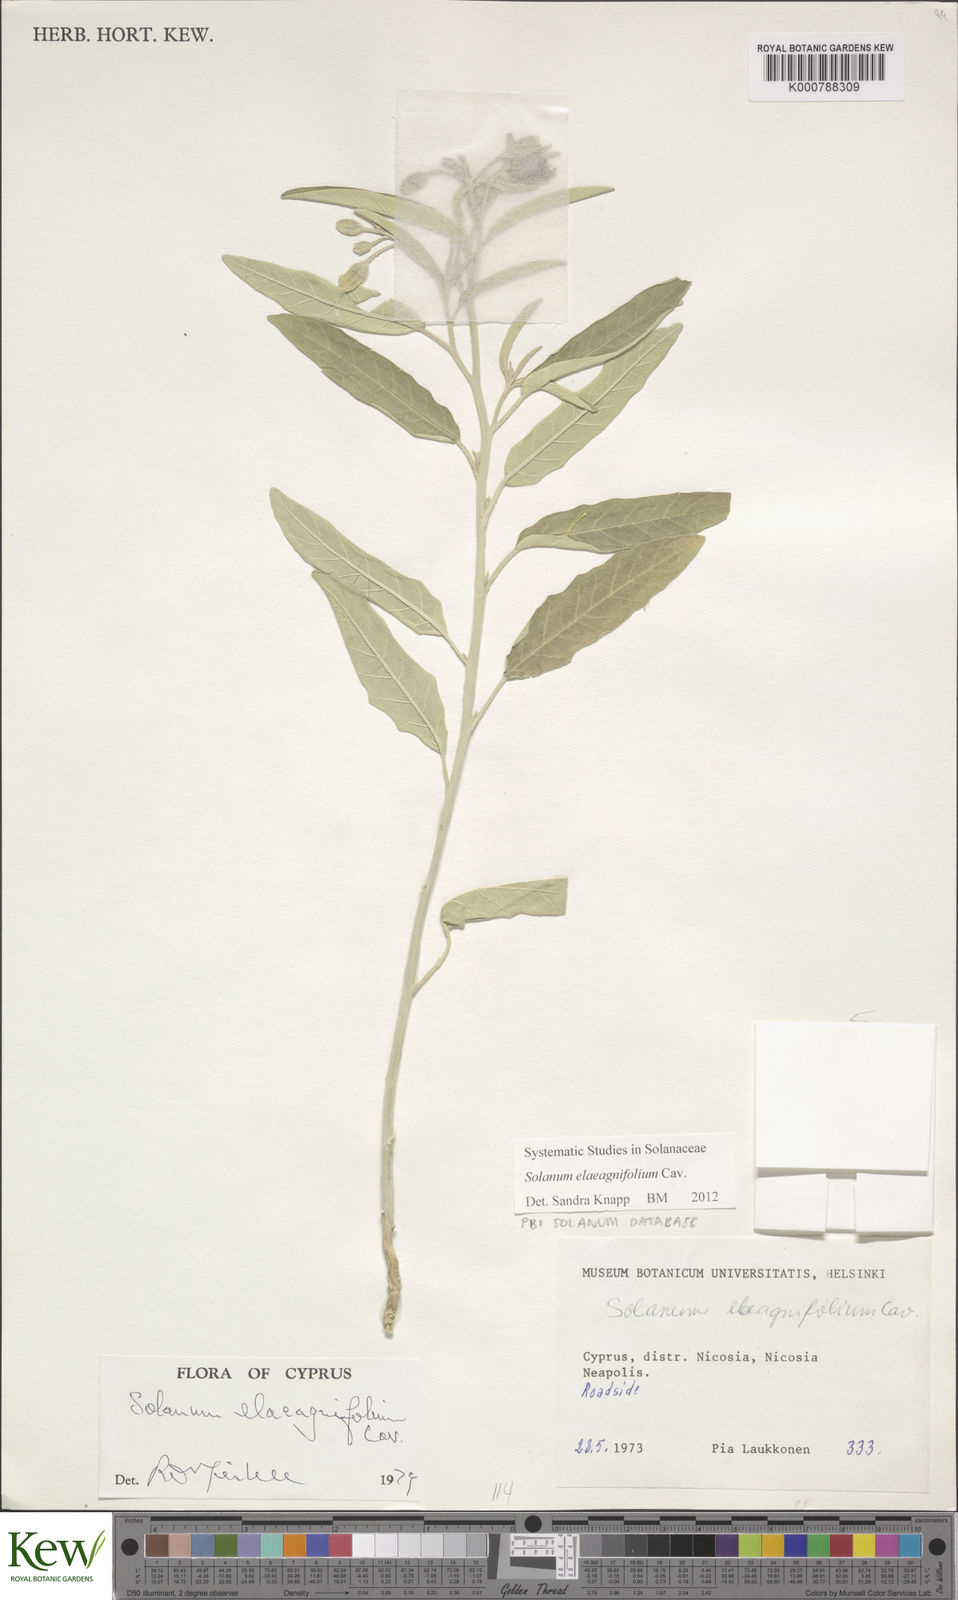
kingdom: Plantae
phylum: Tracheophyta
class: Magnoliopsida
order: Solanales
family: Solanaceae
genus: Solanum
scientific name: Solanum elaeagnifolium
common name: Silverleaf nightshade
